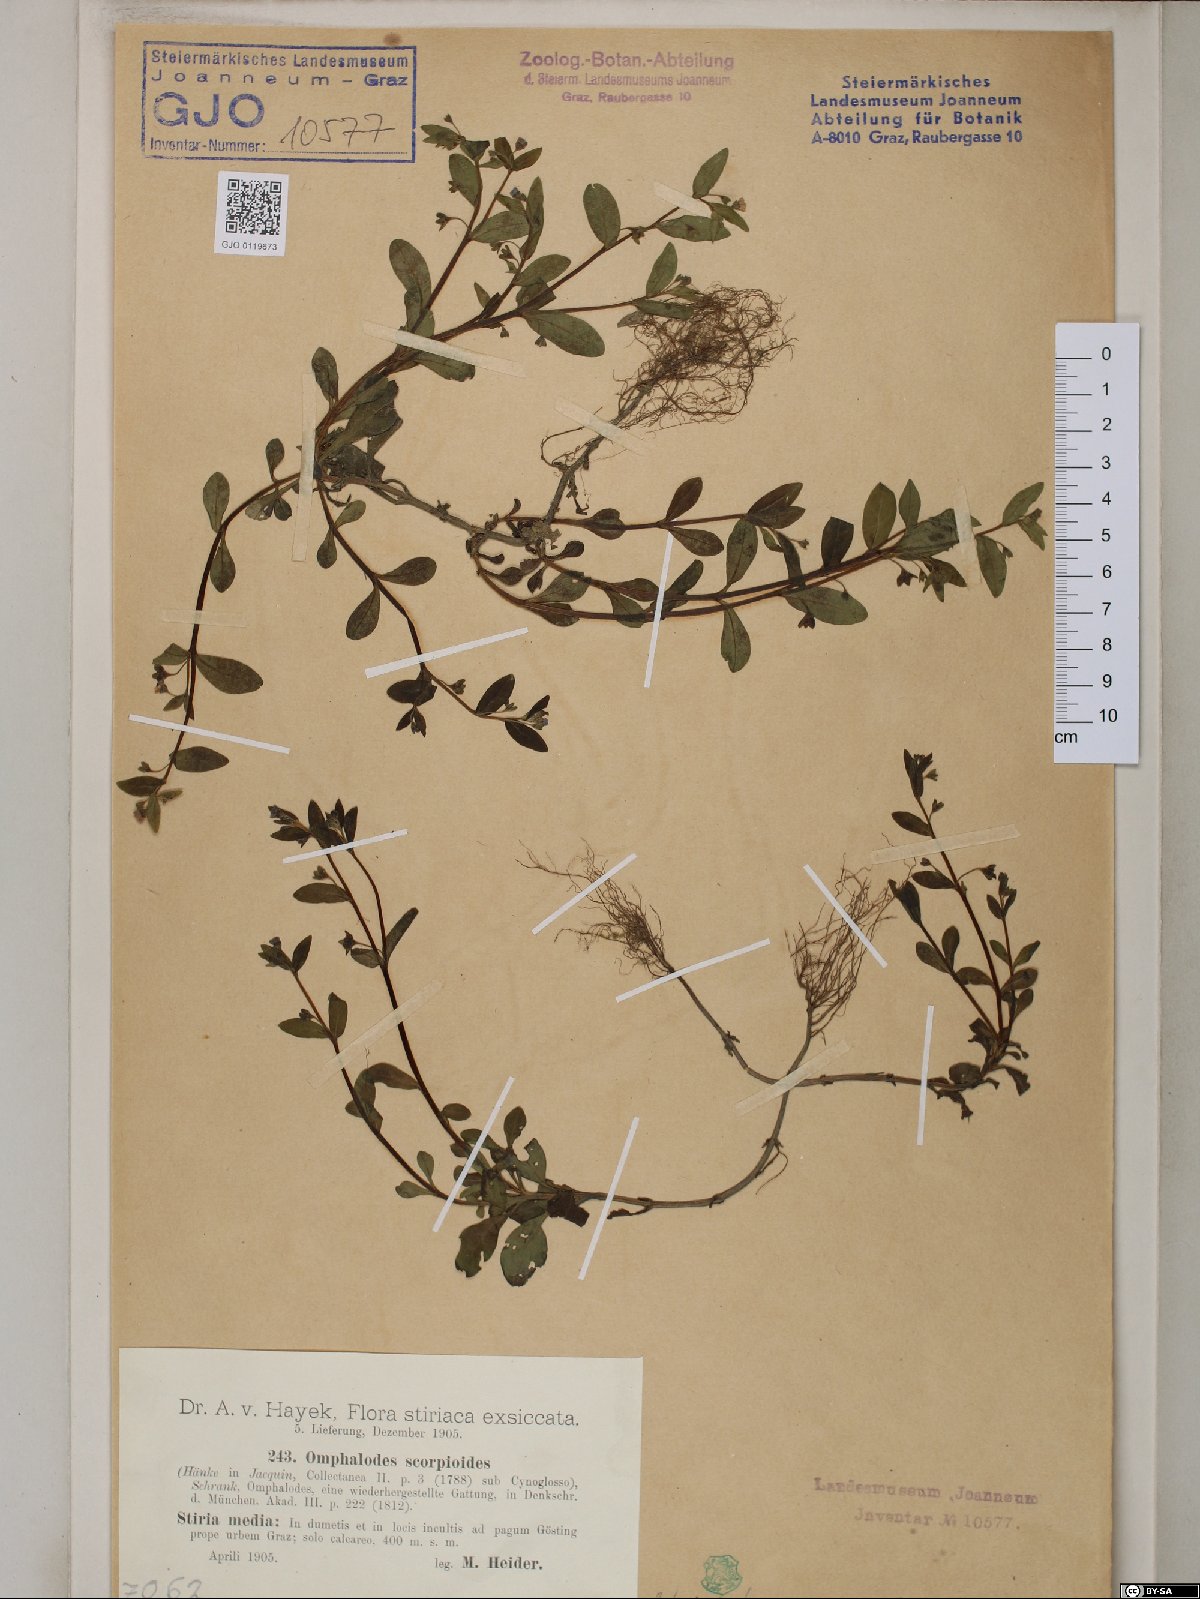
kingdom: Plantae
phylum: Tracheophyta
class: Magnoliopsida
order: Boraginales
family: Boraginaceae
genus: Memoremea
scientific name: Memoremea scorpioides
